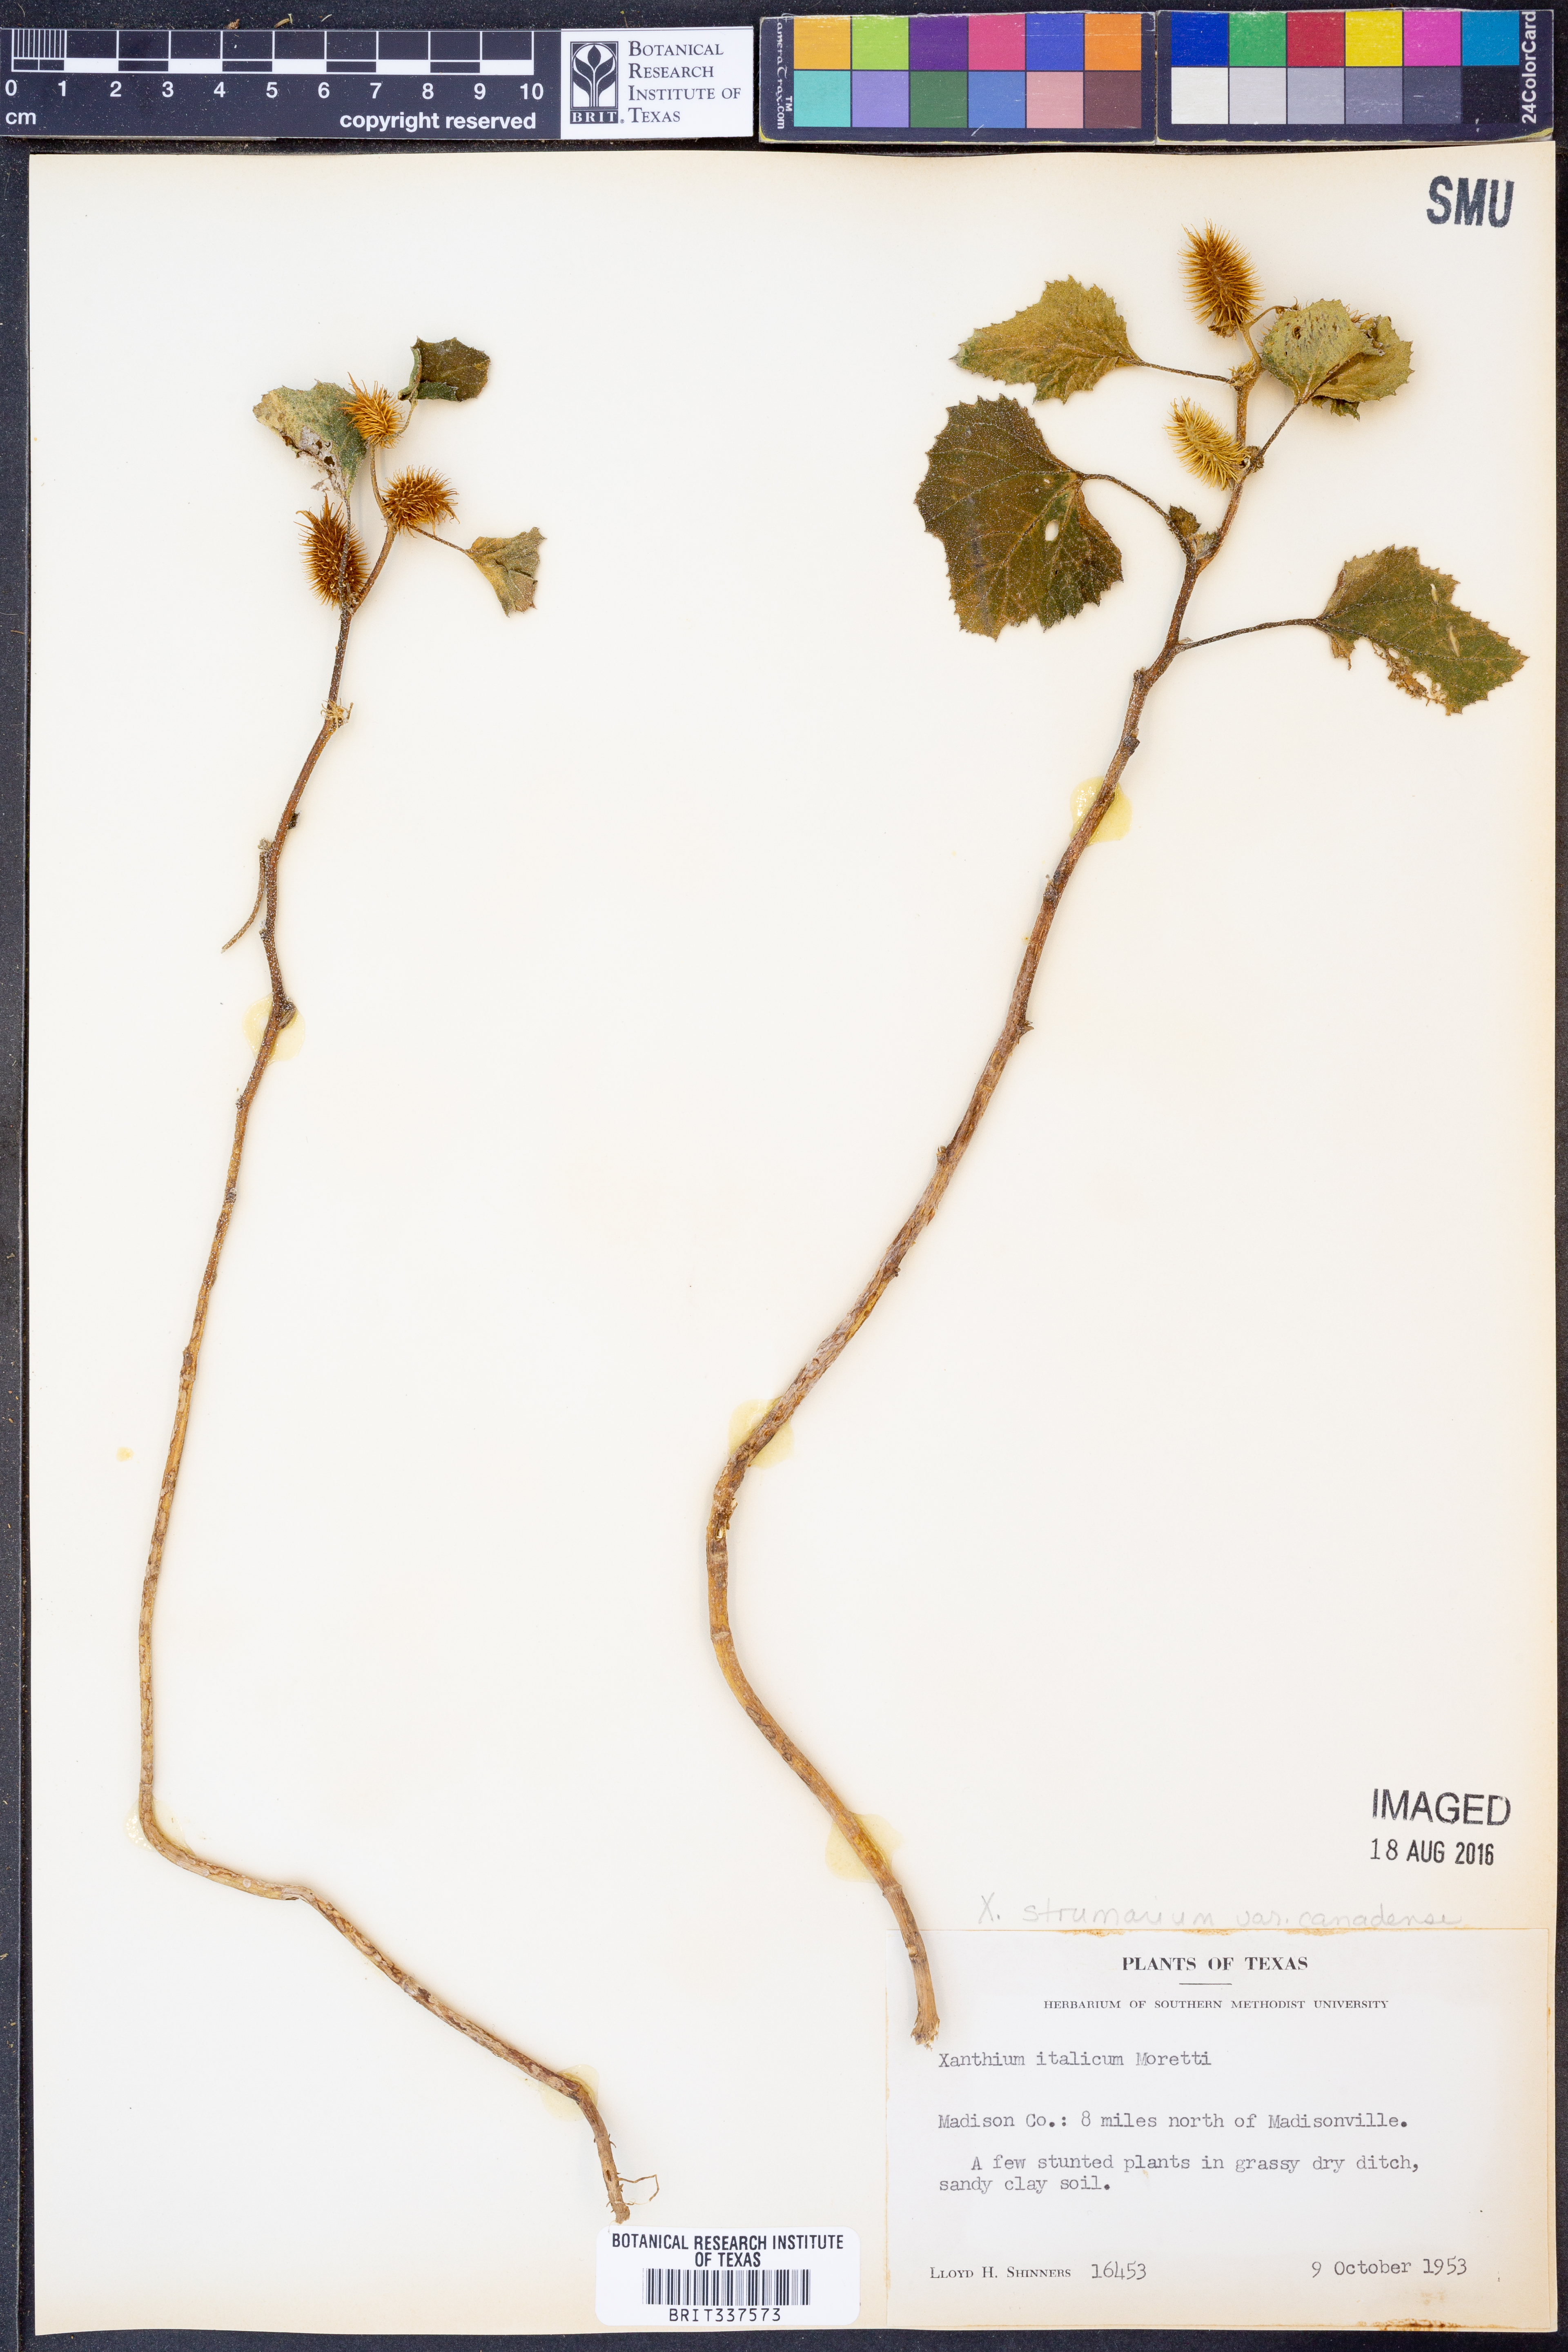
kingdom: Plantae
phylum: Tracheophyta
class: Magnoliopsida
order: Asterales
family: Asteraceae
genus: Xanthium
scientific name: Xanthium orientale
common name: Californian burr
